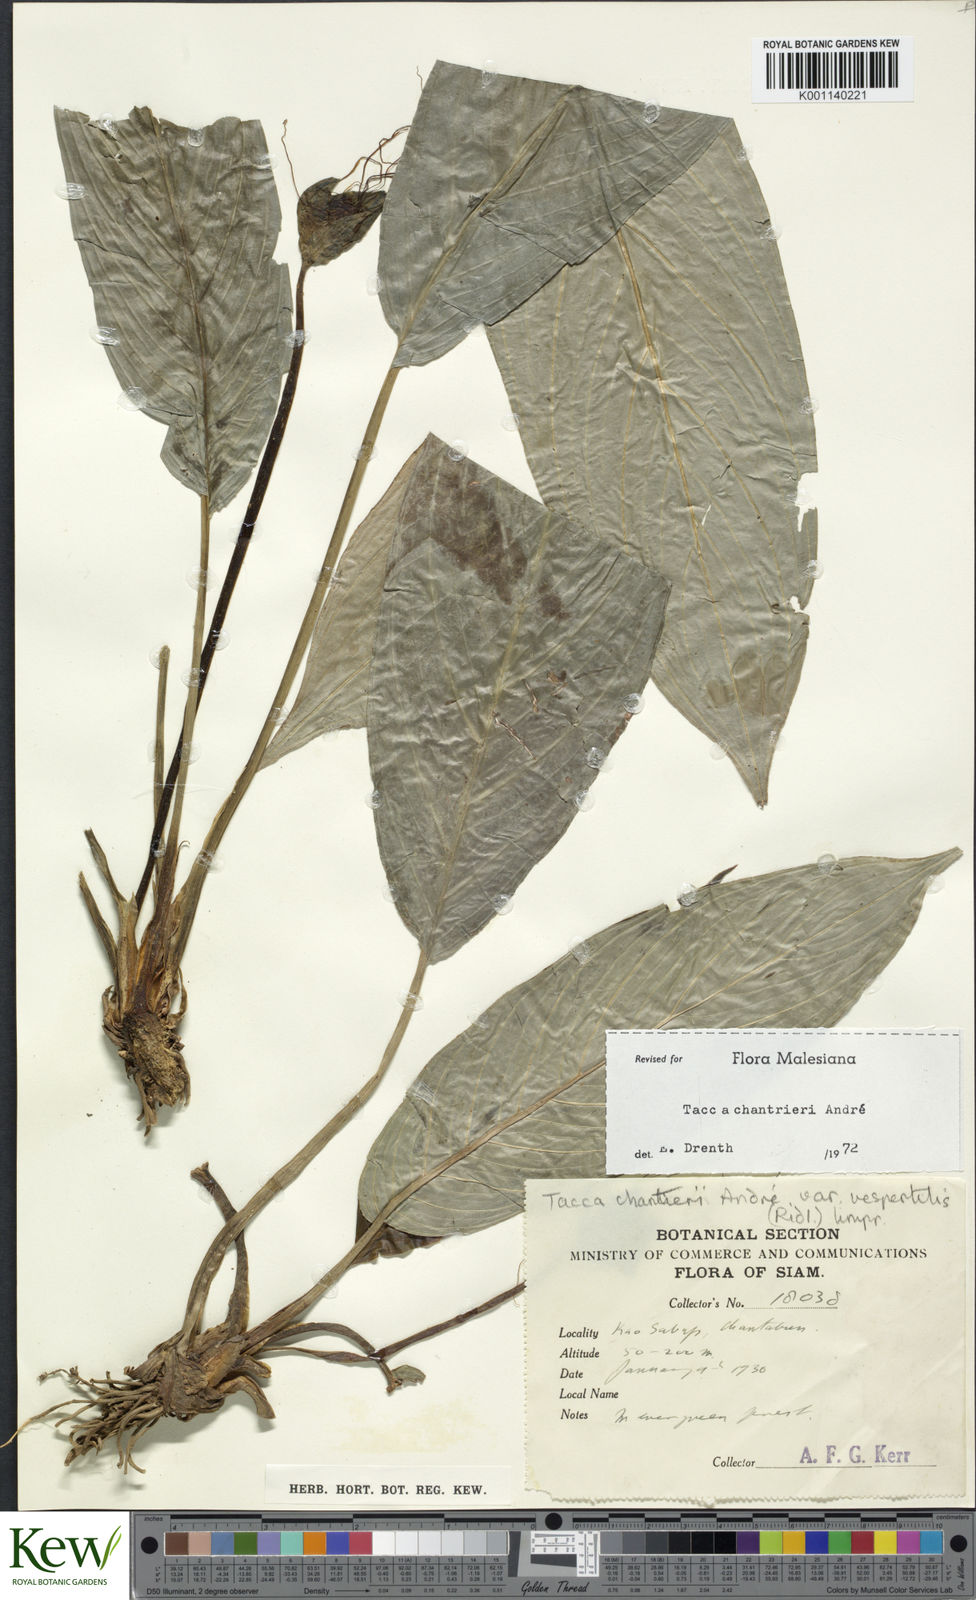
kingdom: Plantae
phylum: Tracheophyta
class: Liliopsida
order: Dioscoreales
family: Dioscoreaceae
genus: Tacca
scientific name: Tacca
